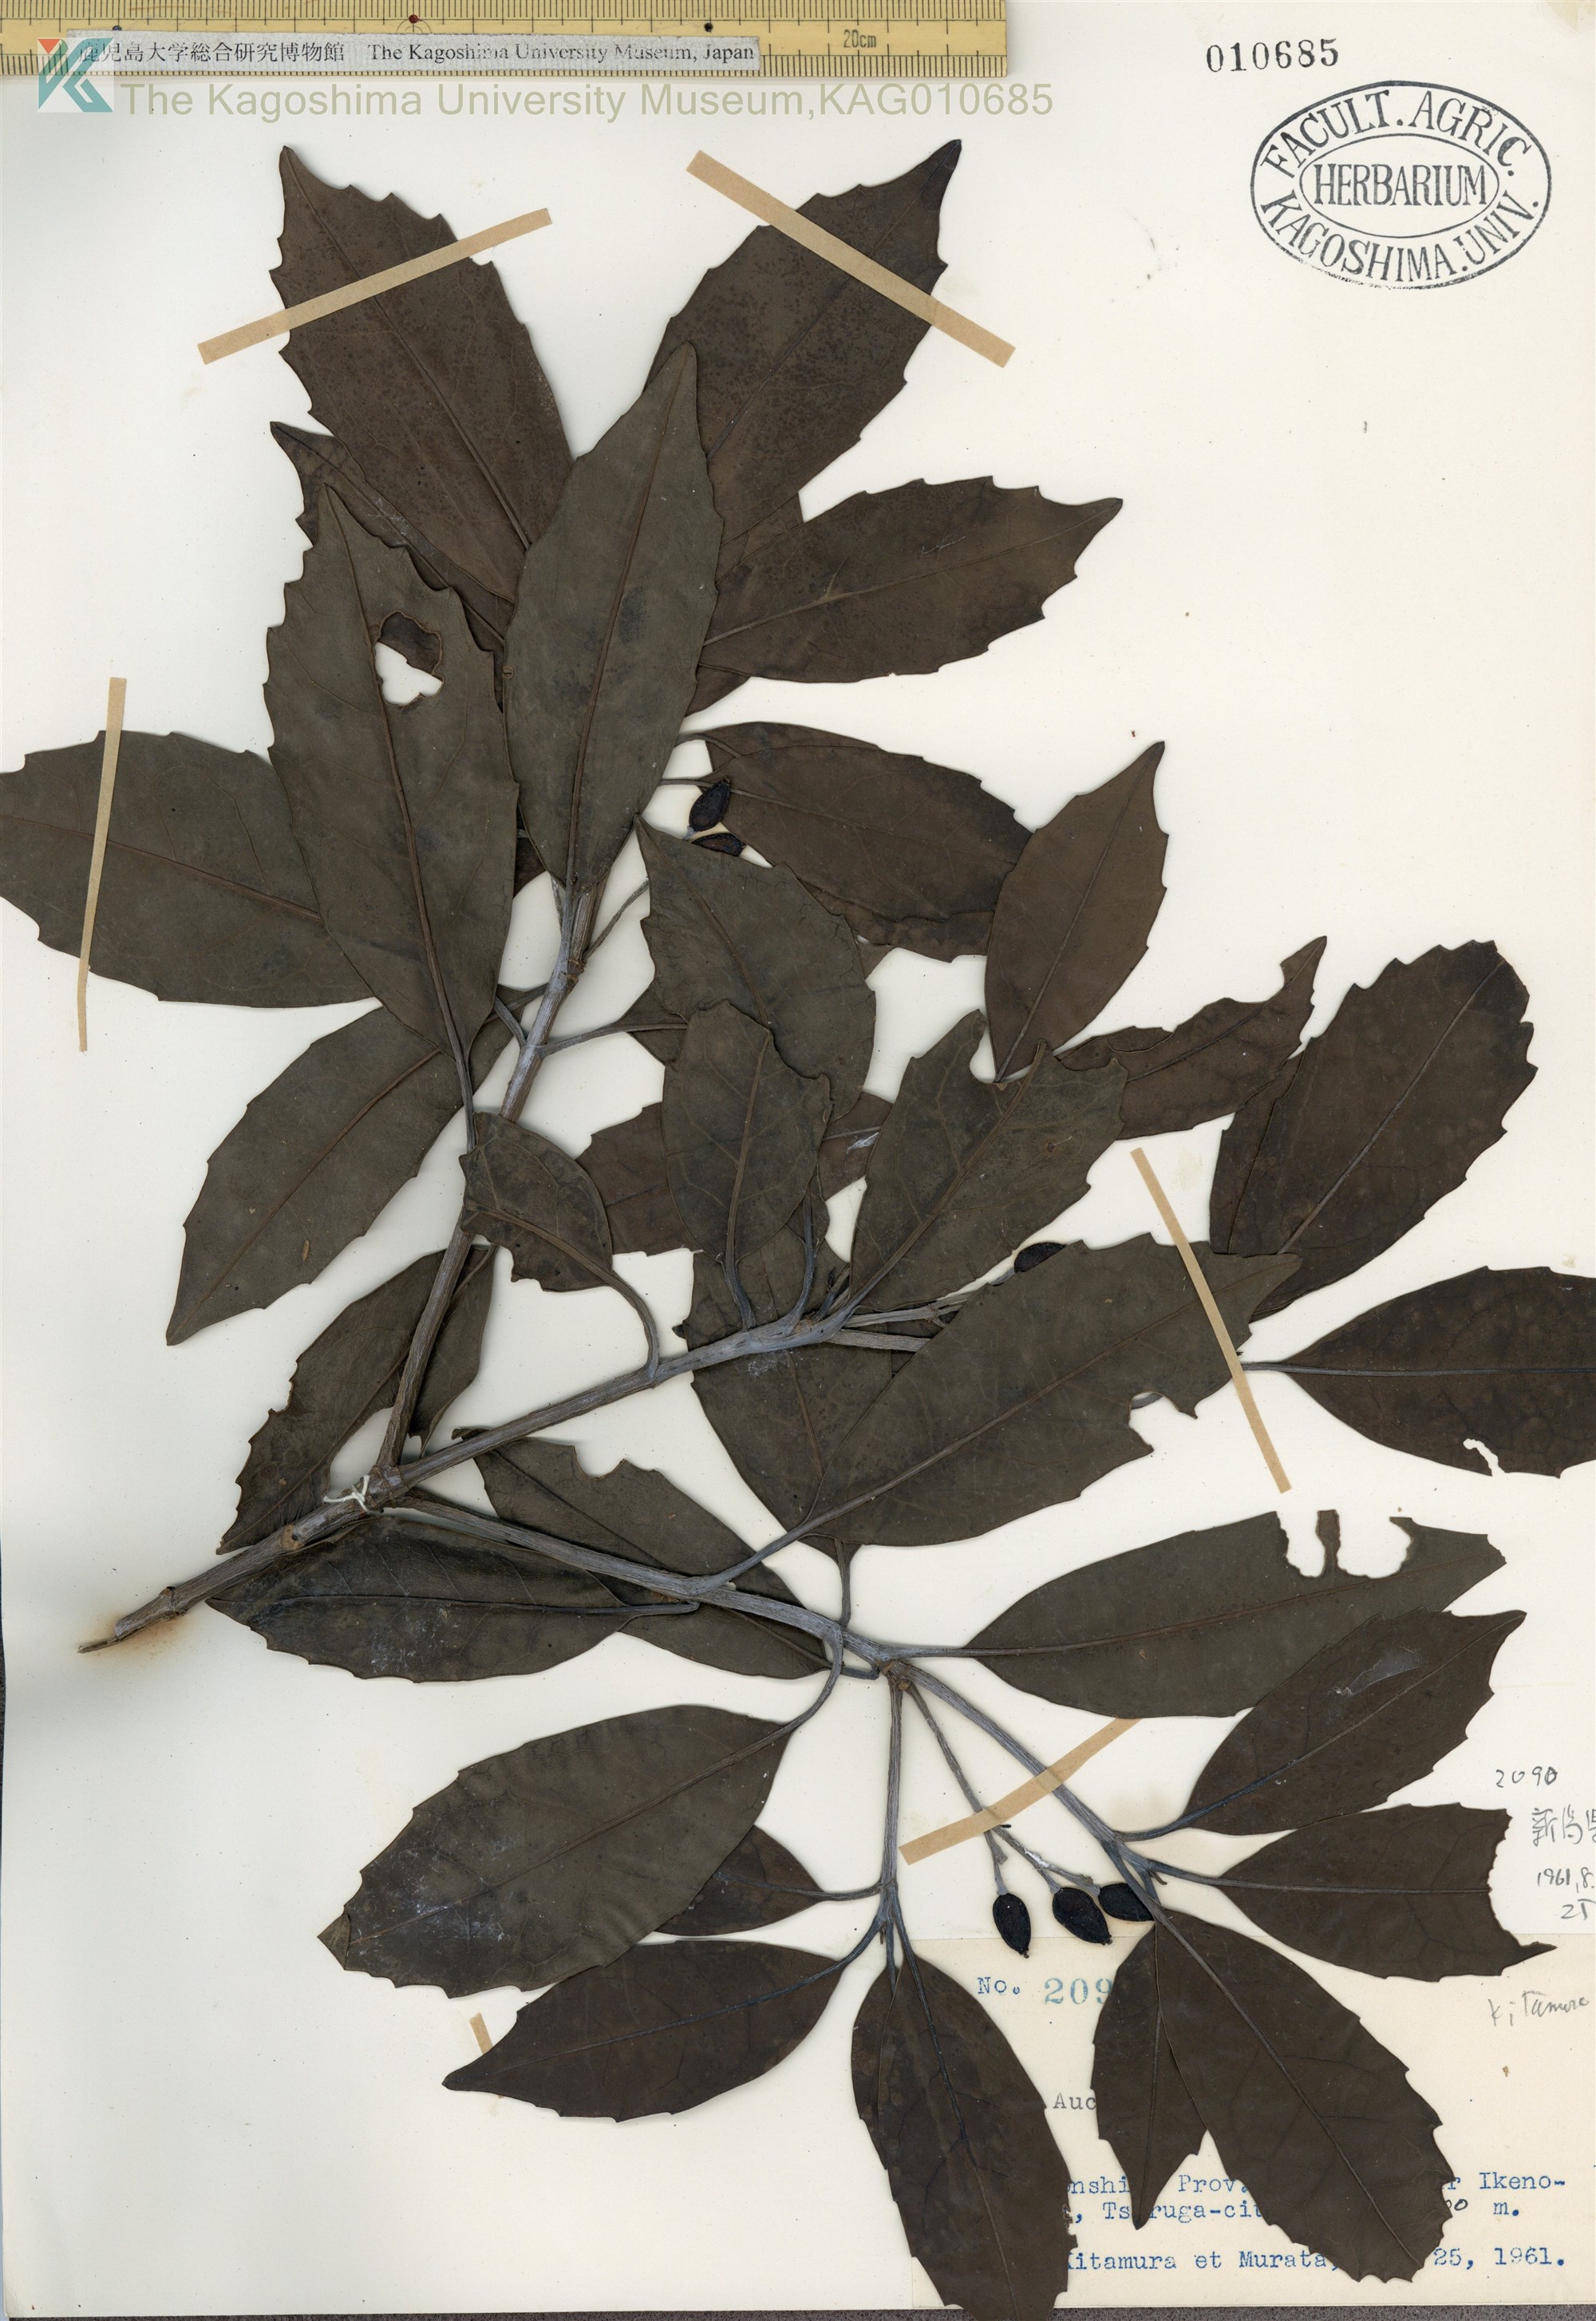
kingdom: Plantae
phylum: Tracheophyta
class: Magnoliopsida
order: Garryales
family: Garryaceae
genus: Aucuba
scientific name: Aucuba japonica
